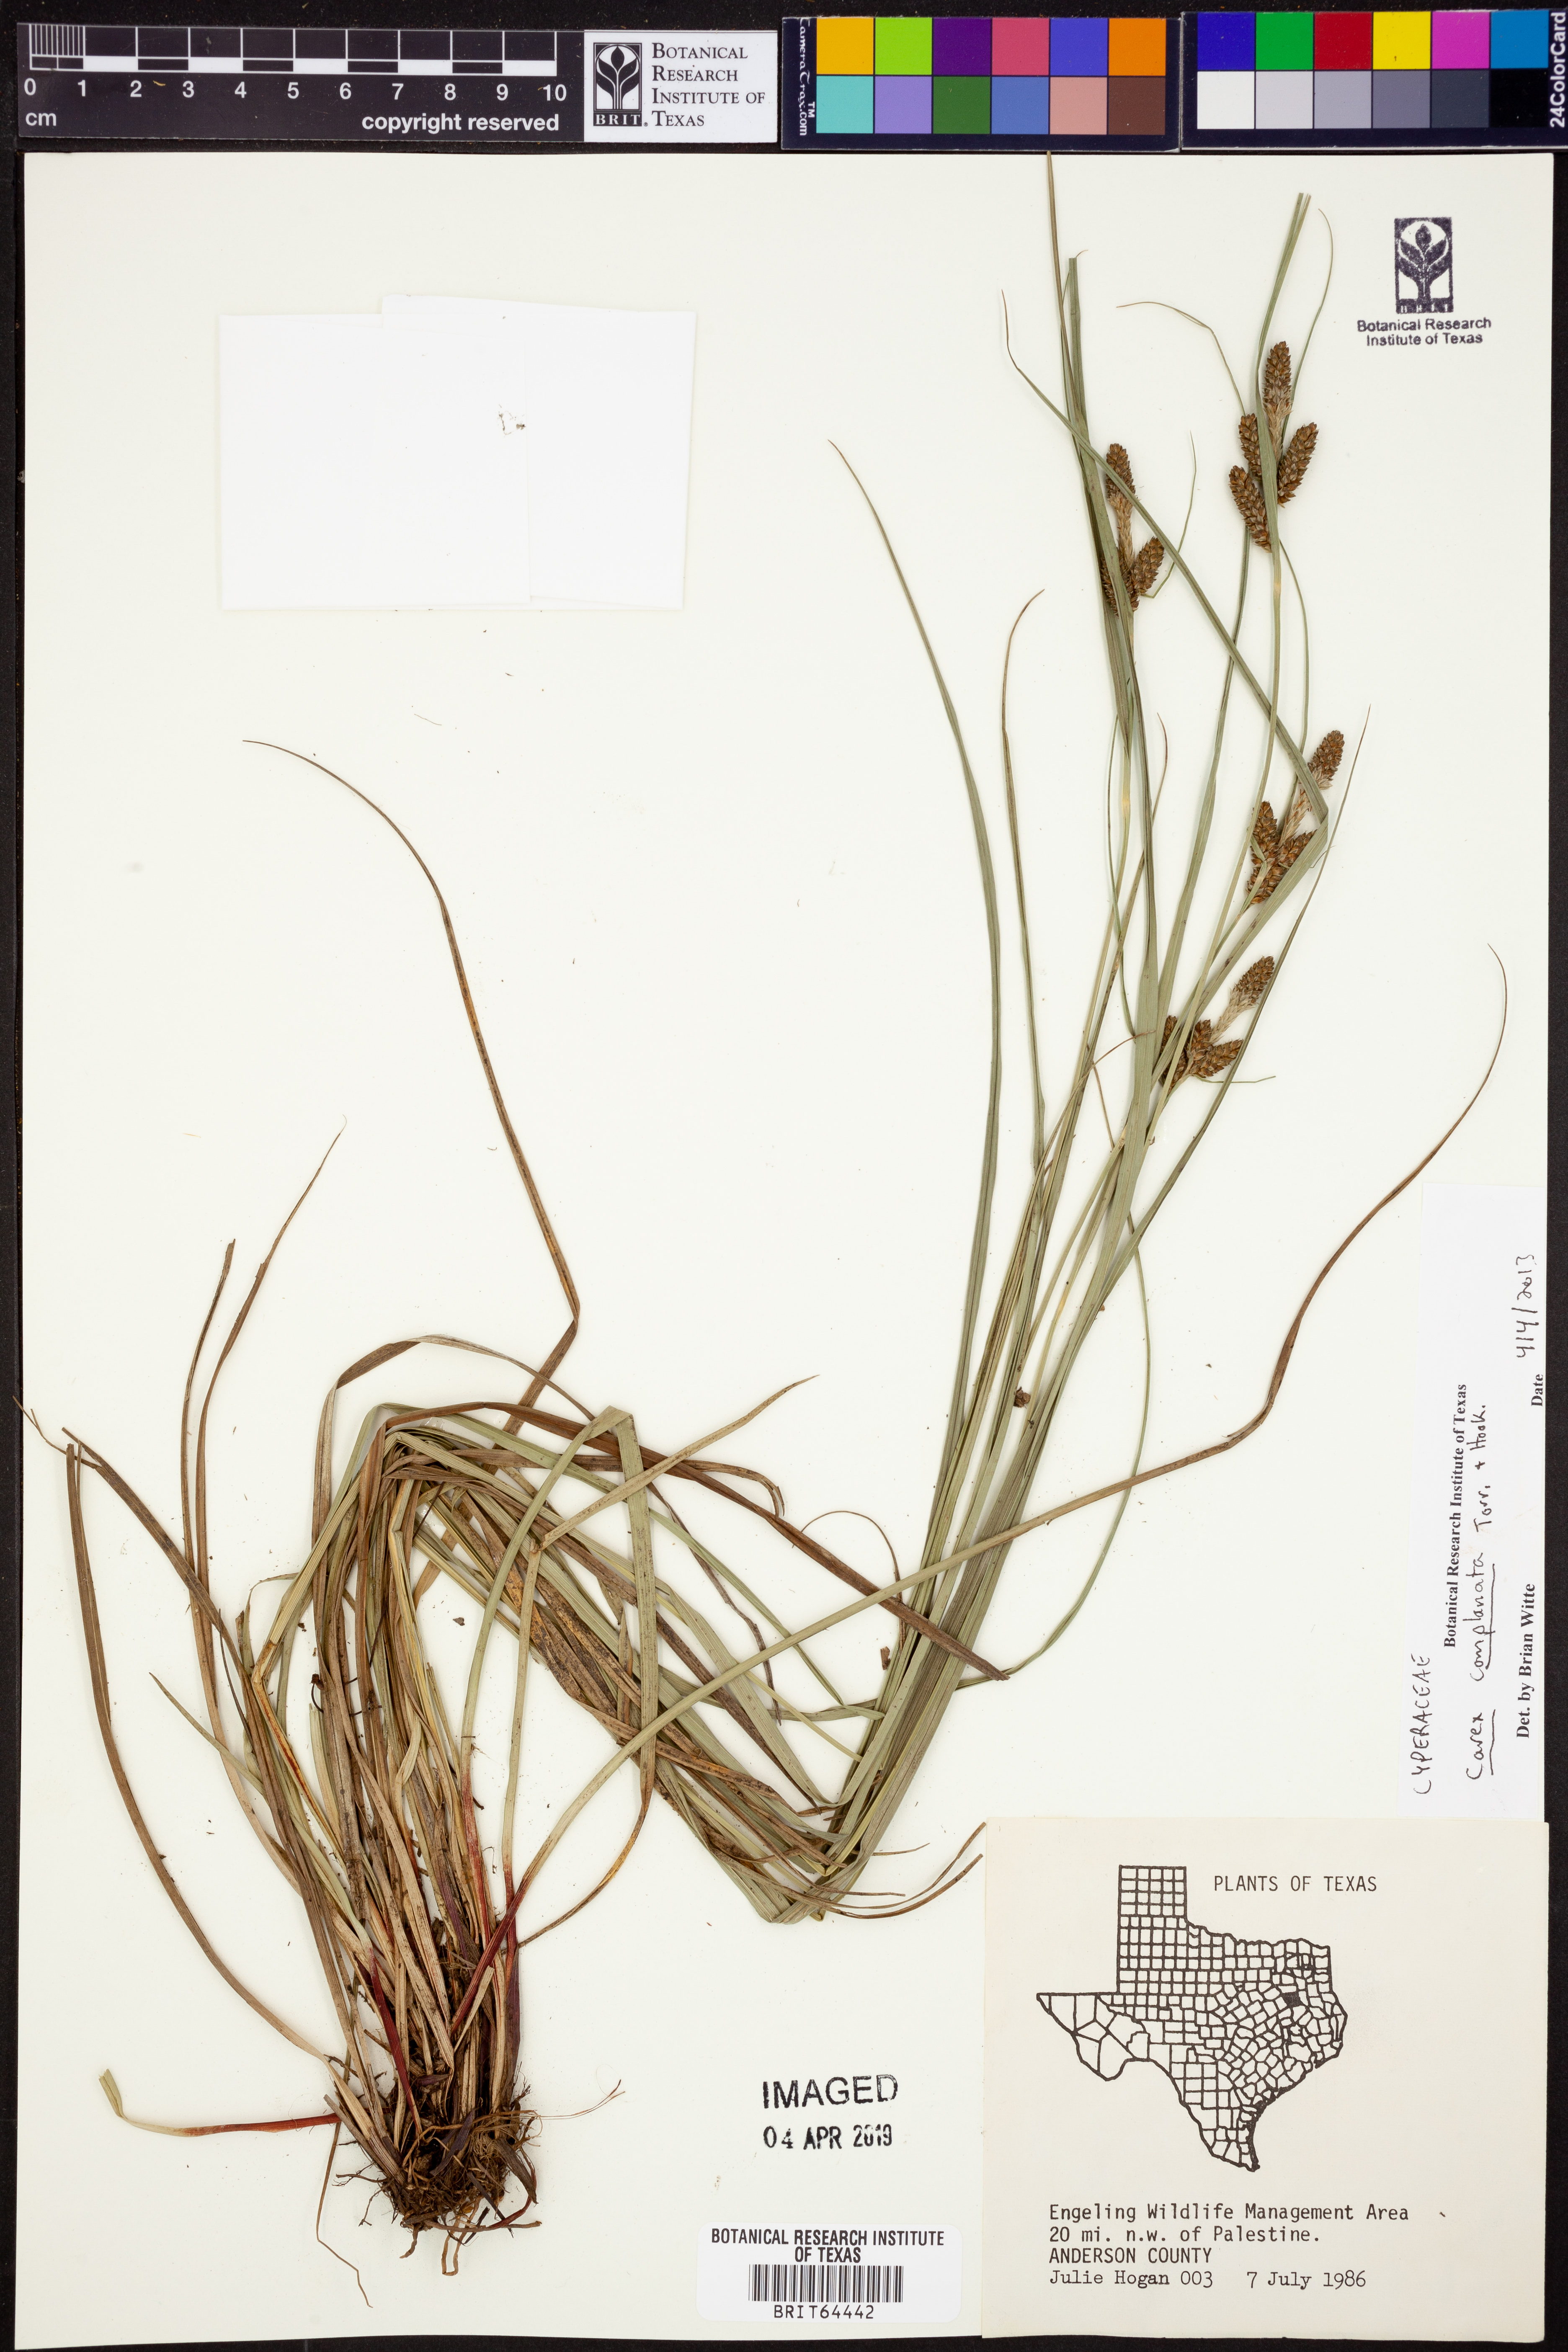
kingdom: Plantae
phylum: Tracheophyta
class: Liliopsida
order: Poales
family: Cyperaceae
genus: Carex
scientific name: Carex complanata
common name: Hirsute sedge
